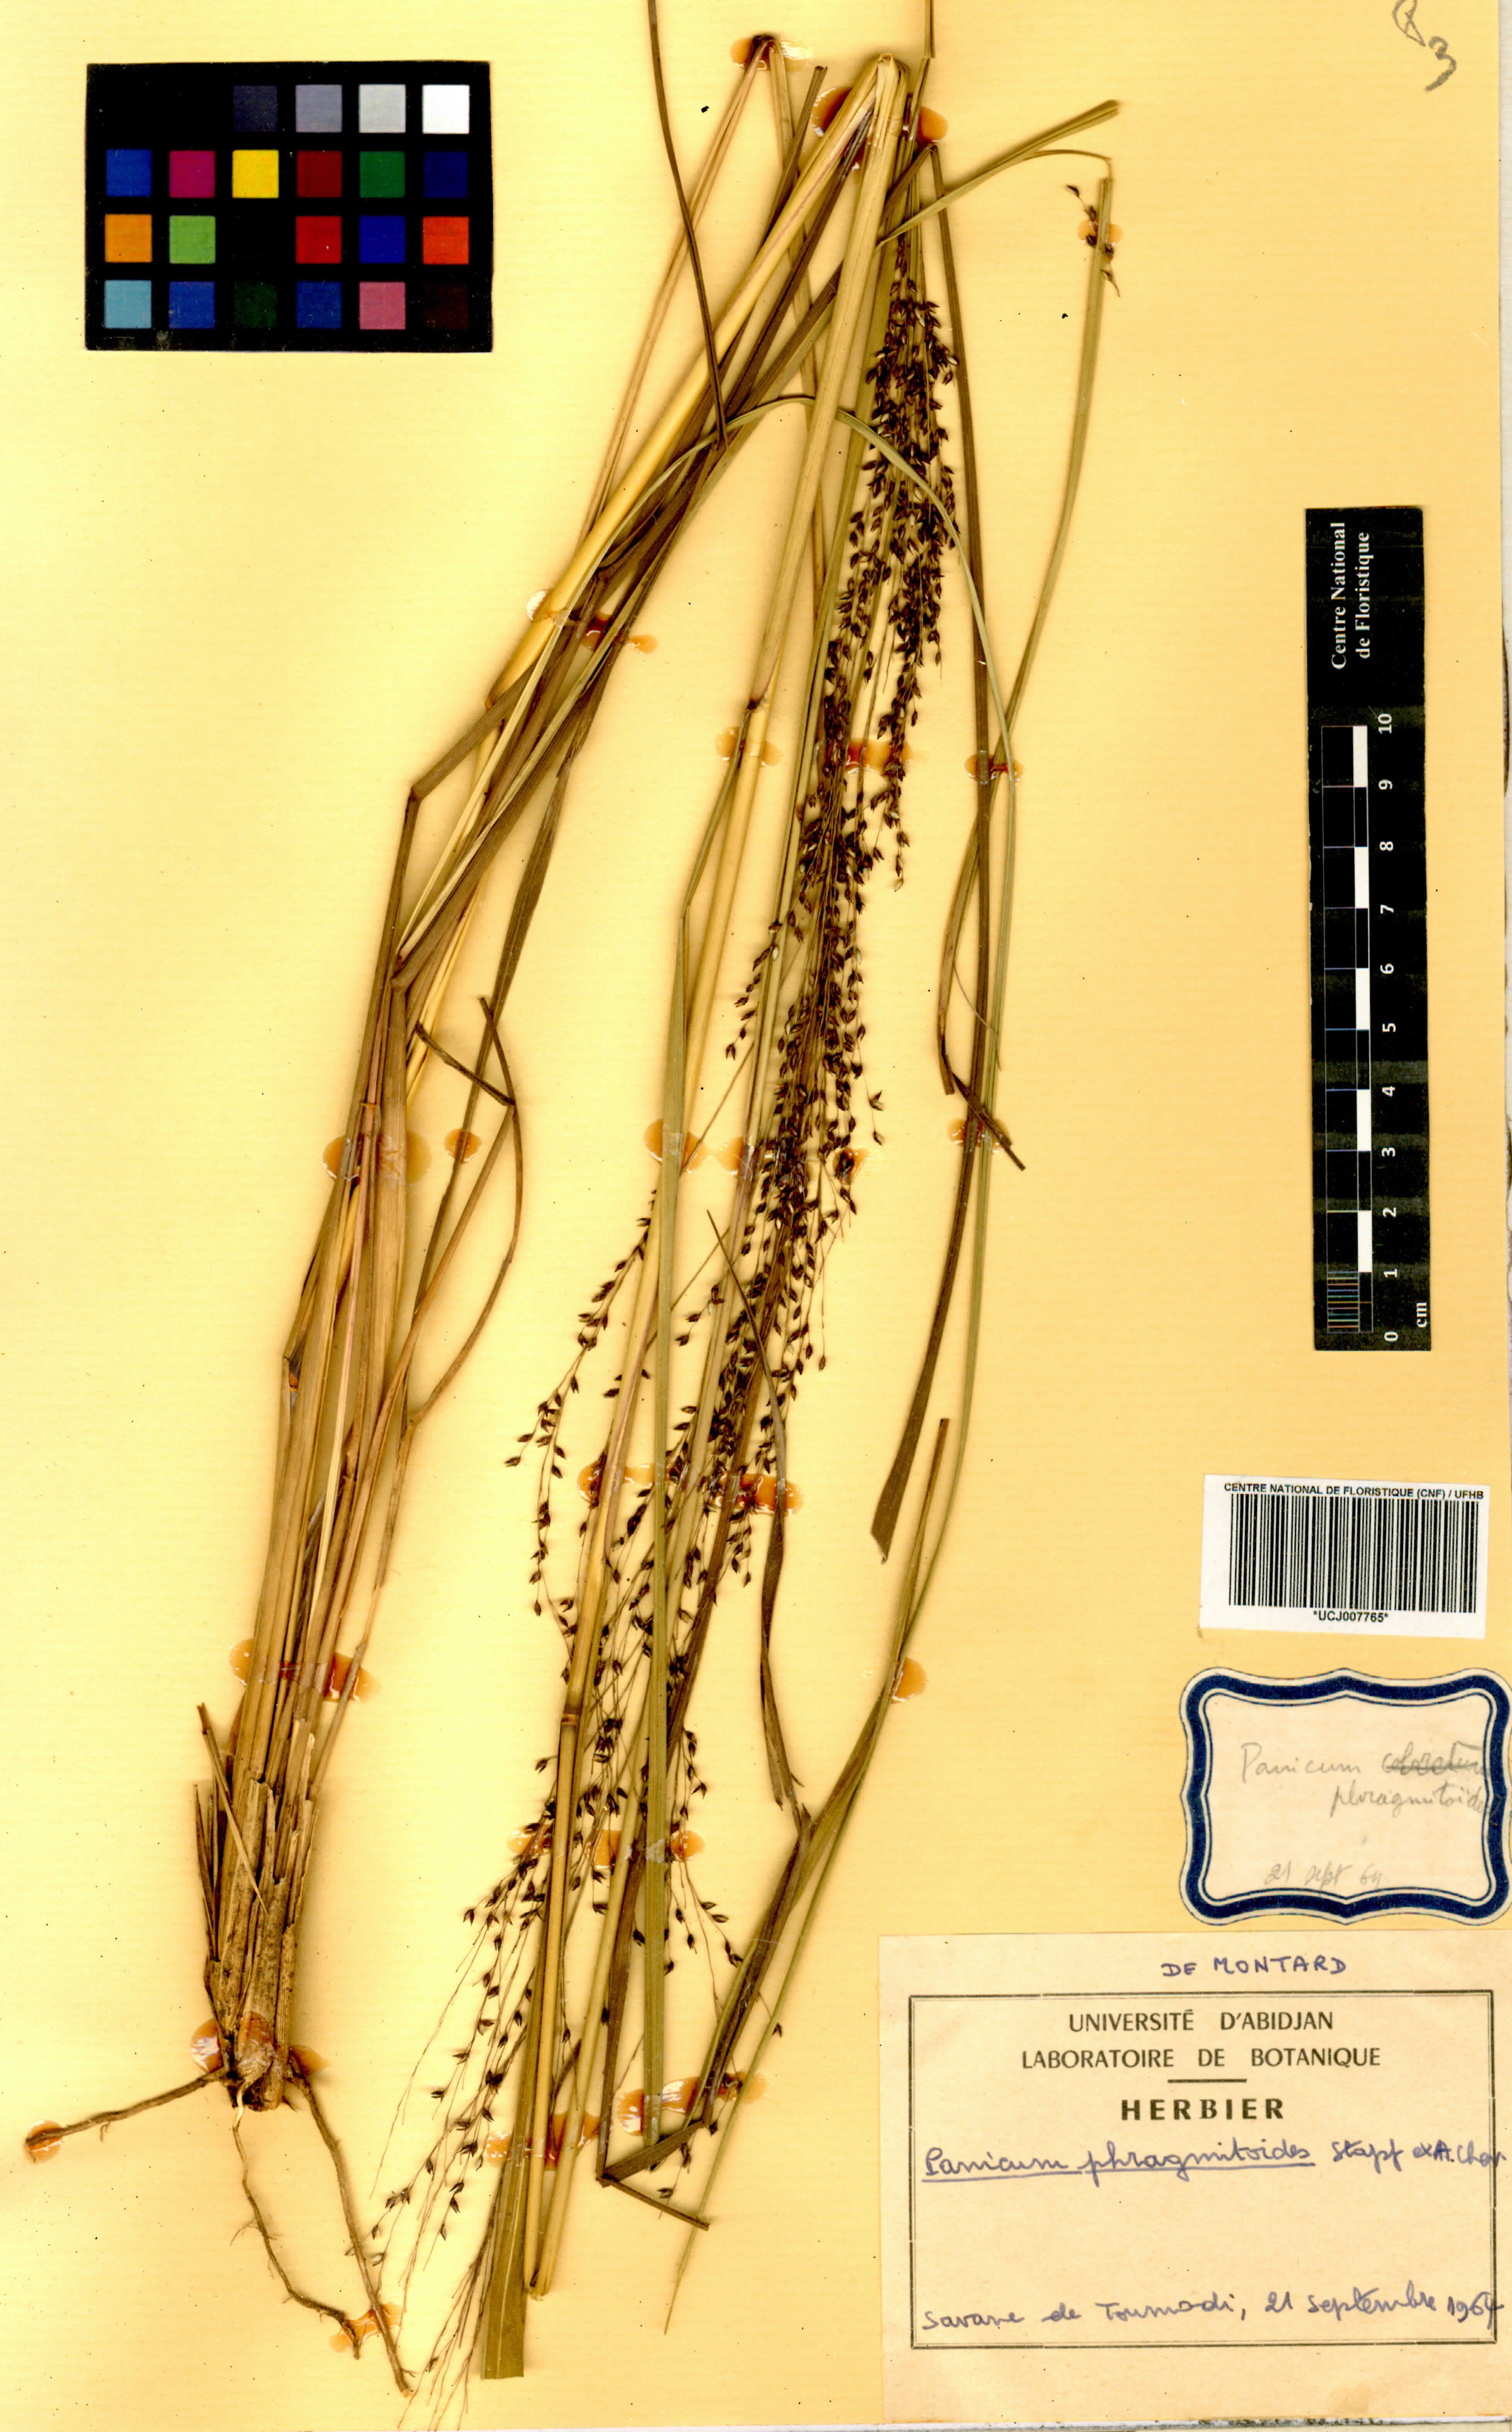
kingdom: Plantae
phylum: Tracheophyta
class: Liliopsida
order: Poales
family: Poaceae
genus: Panicum
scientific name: Panicum phragmitoides
